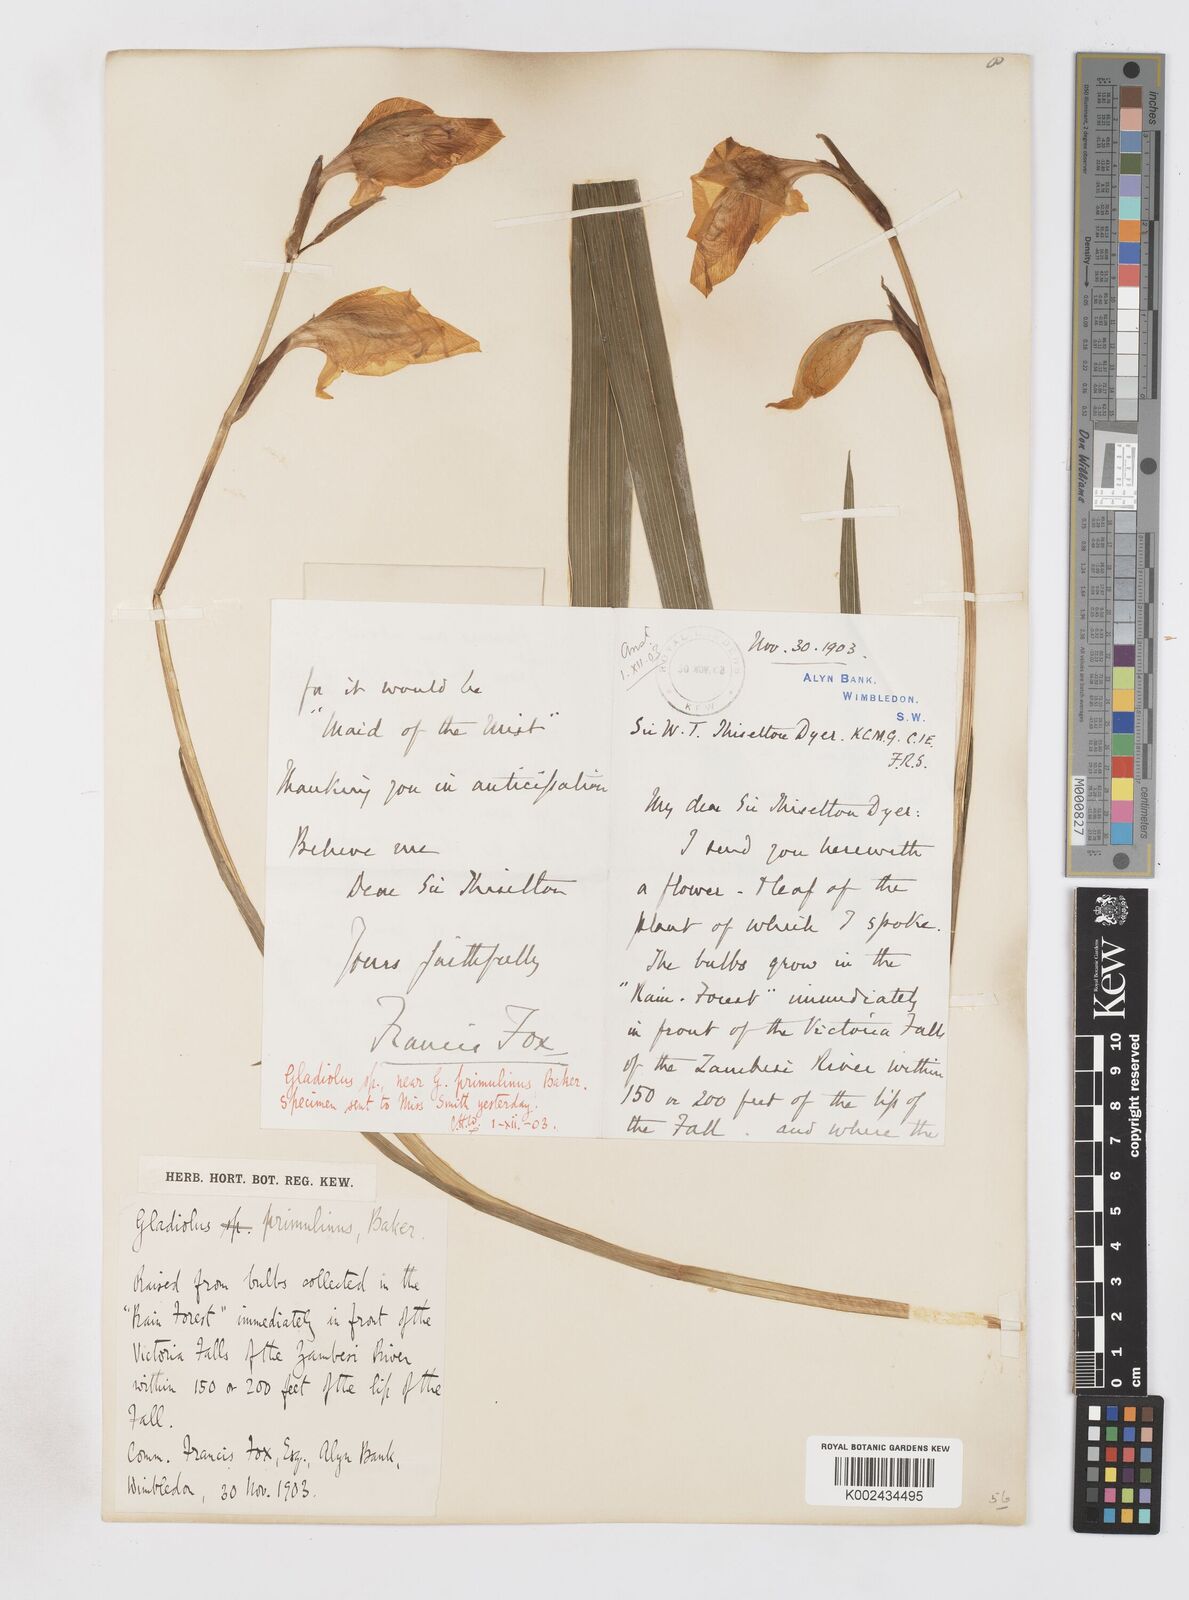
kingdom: Plantae
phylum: Tracheophyta
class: Liliopsida
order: Asparagales
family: Iridaceae
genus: Gladiolus
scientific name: Gladiolus dalenii
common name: Cornflag
